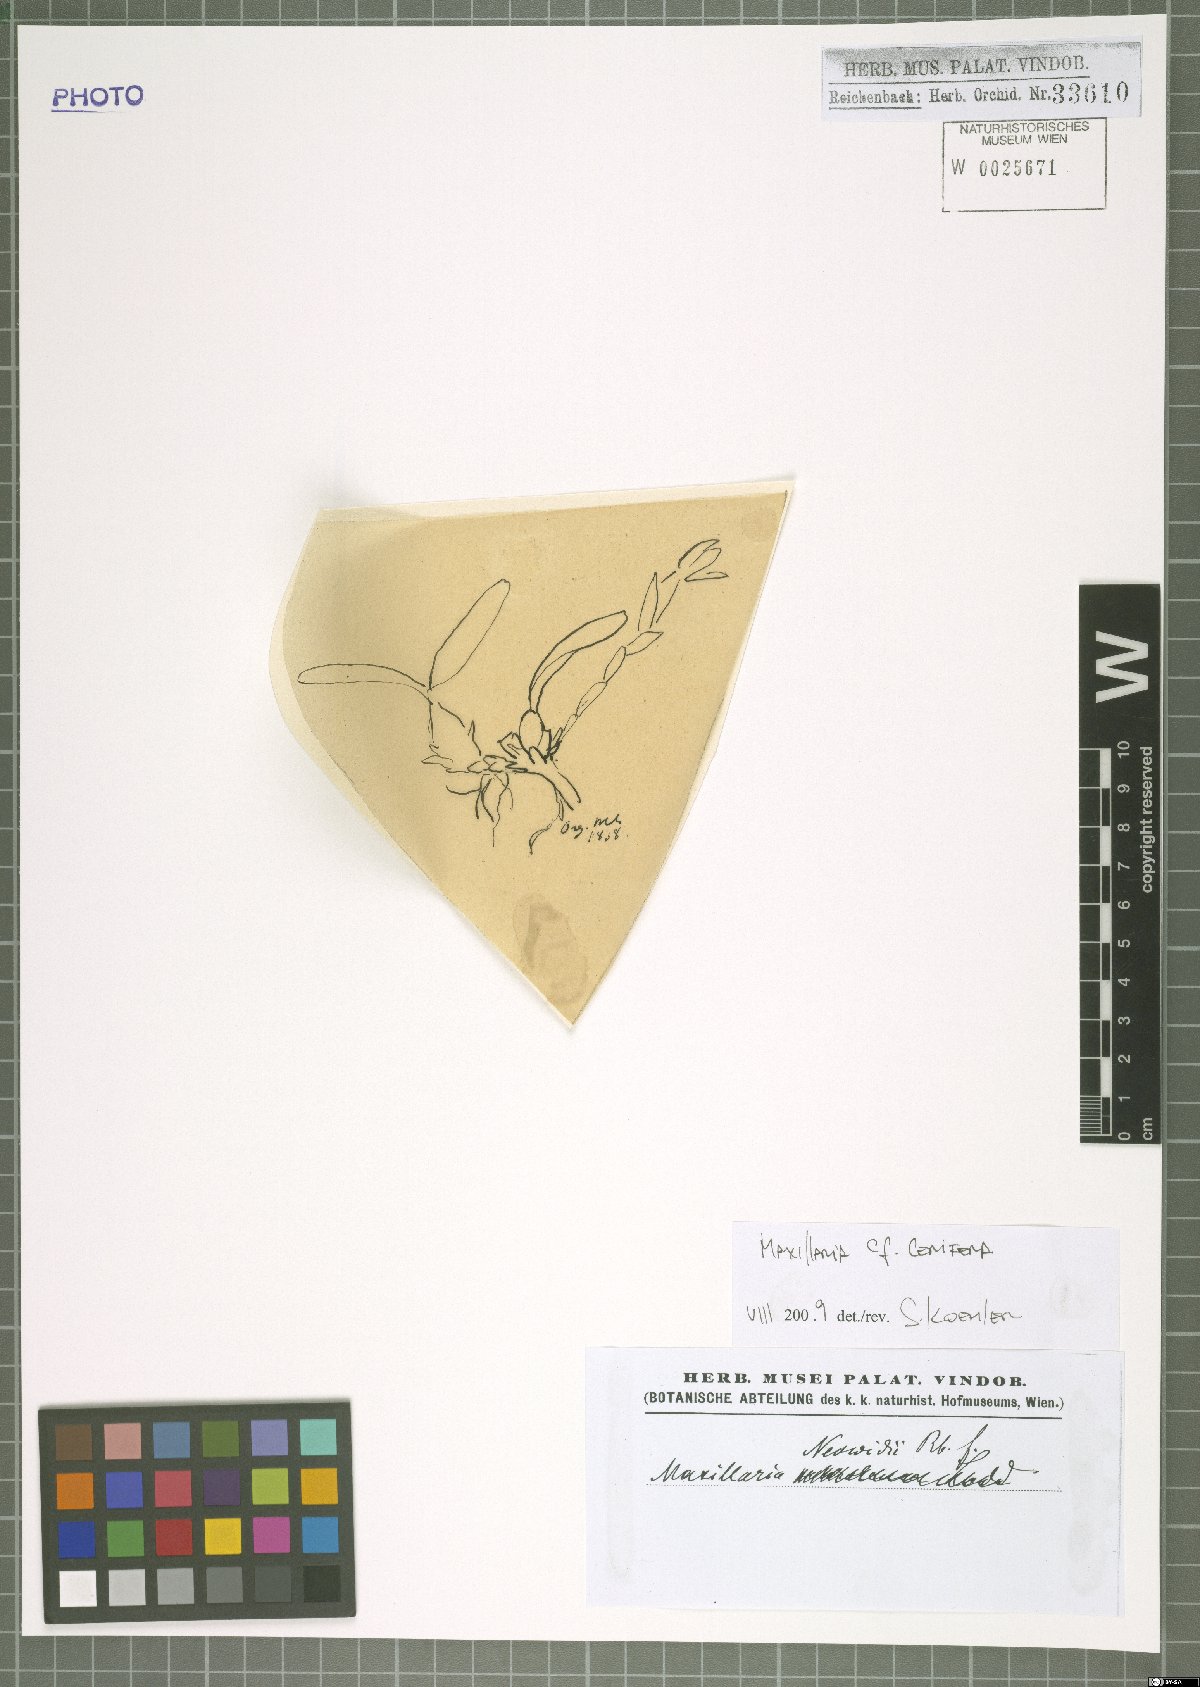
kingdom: Plantae
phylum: Tracheophyta
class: Liliopsida
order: Asparagales
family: Orchidaceae
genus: Maxillaria
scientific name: Maxillaria notylioglossa
